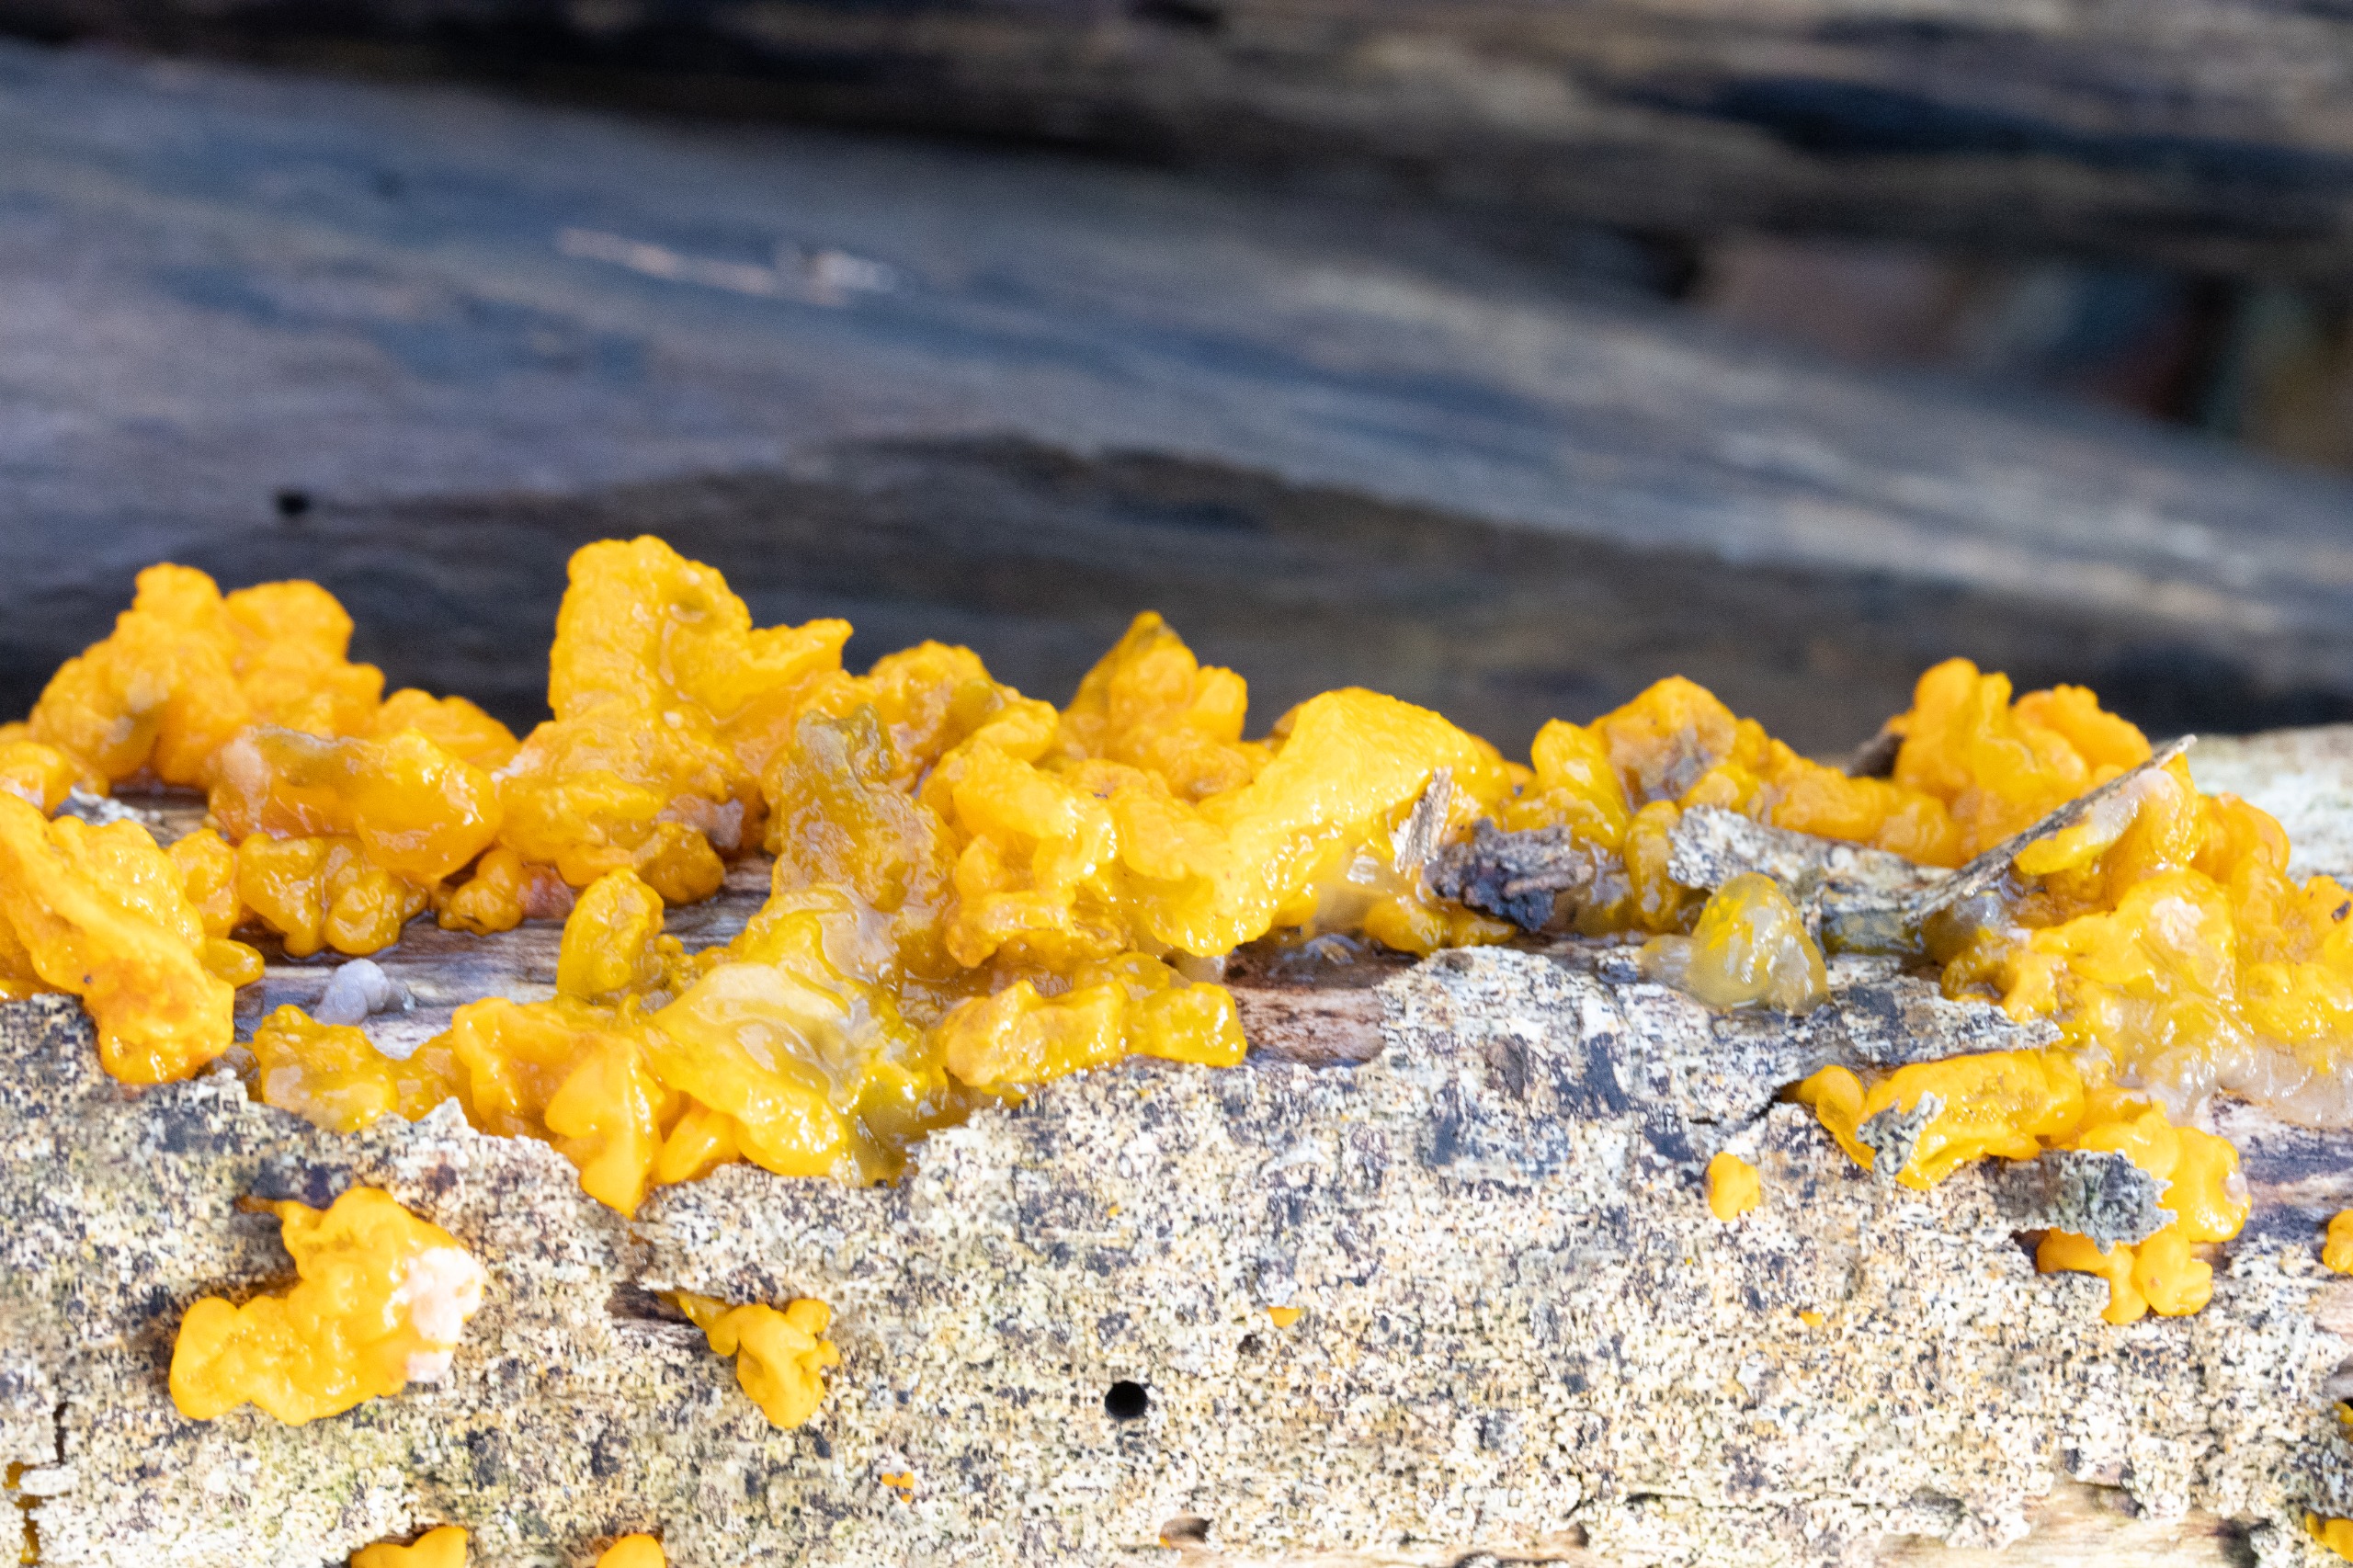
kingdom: Fungi
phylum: Basidiomycota
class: Tremellomycetes
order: Tremellales
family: Tremellaceae
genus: Tremella
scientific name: Tremella mesenterica
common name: Gul bævresvamp
